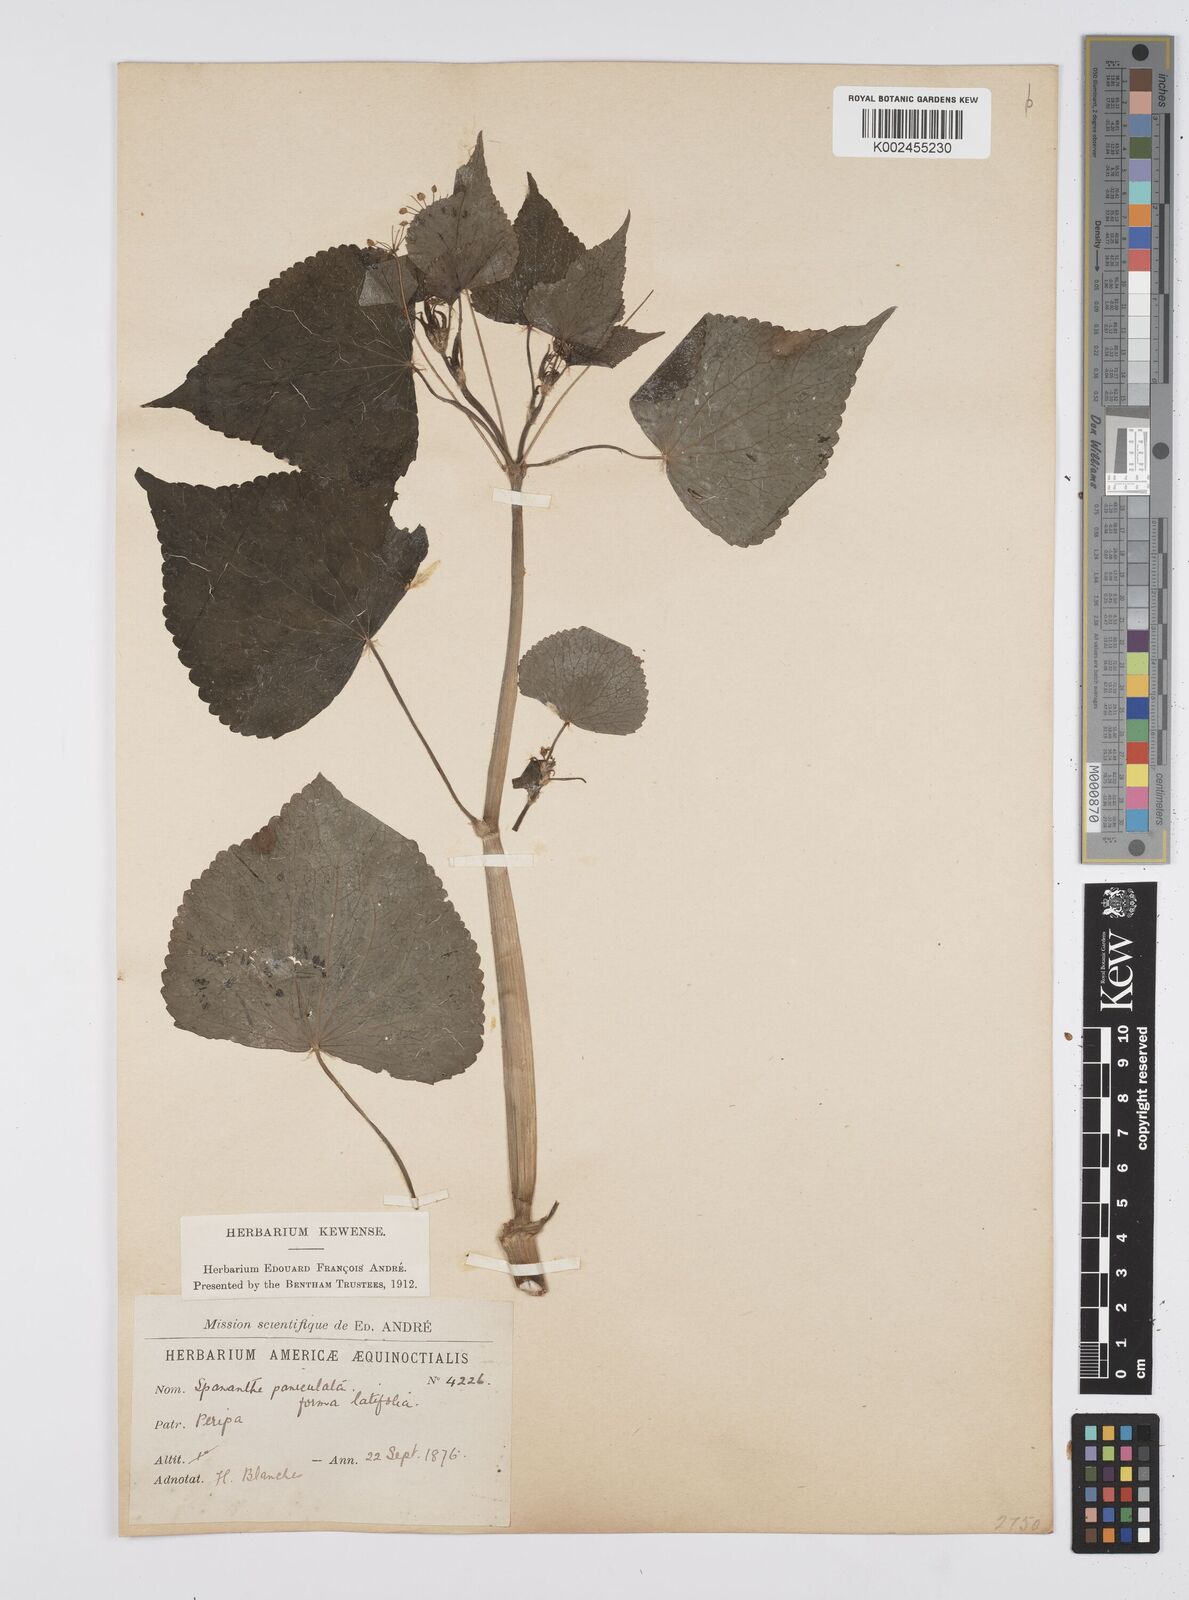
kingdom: Plantae
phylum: Tracheophyta
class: Magnoliopsida
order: Apiales
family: Apiaceae
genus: Azorella
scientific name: Azorella
